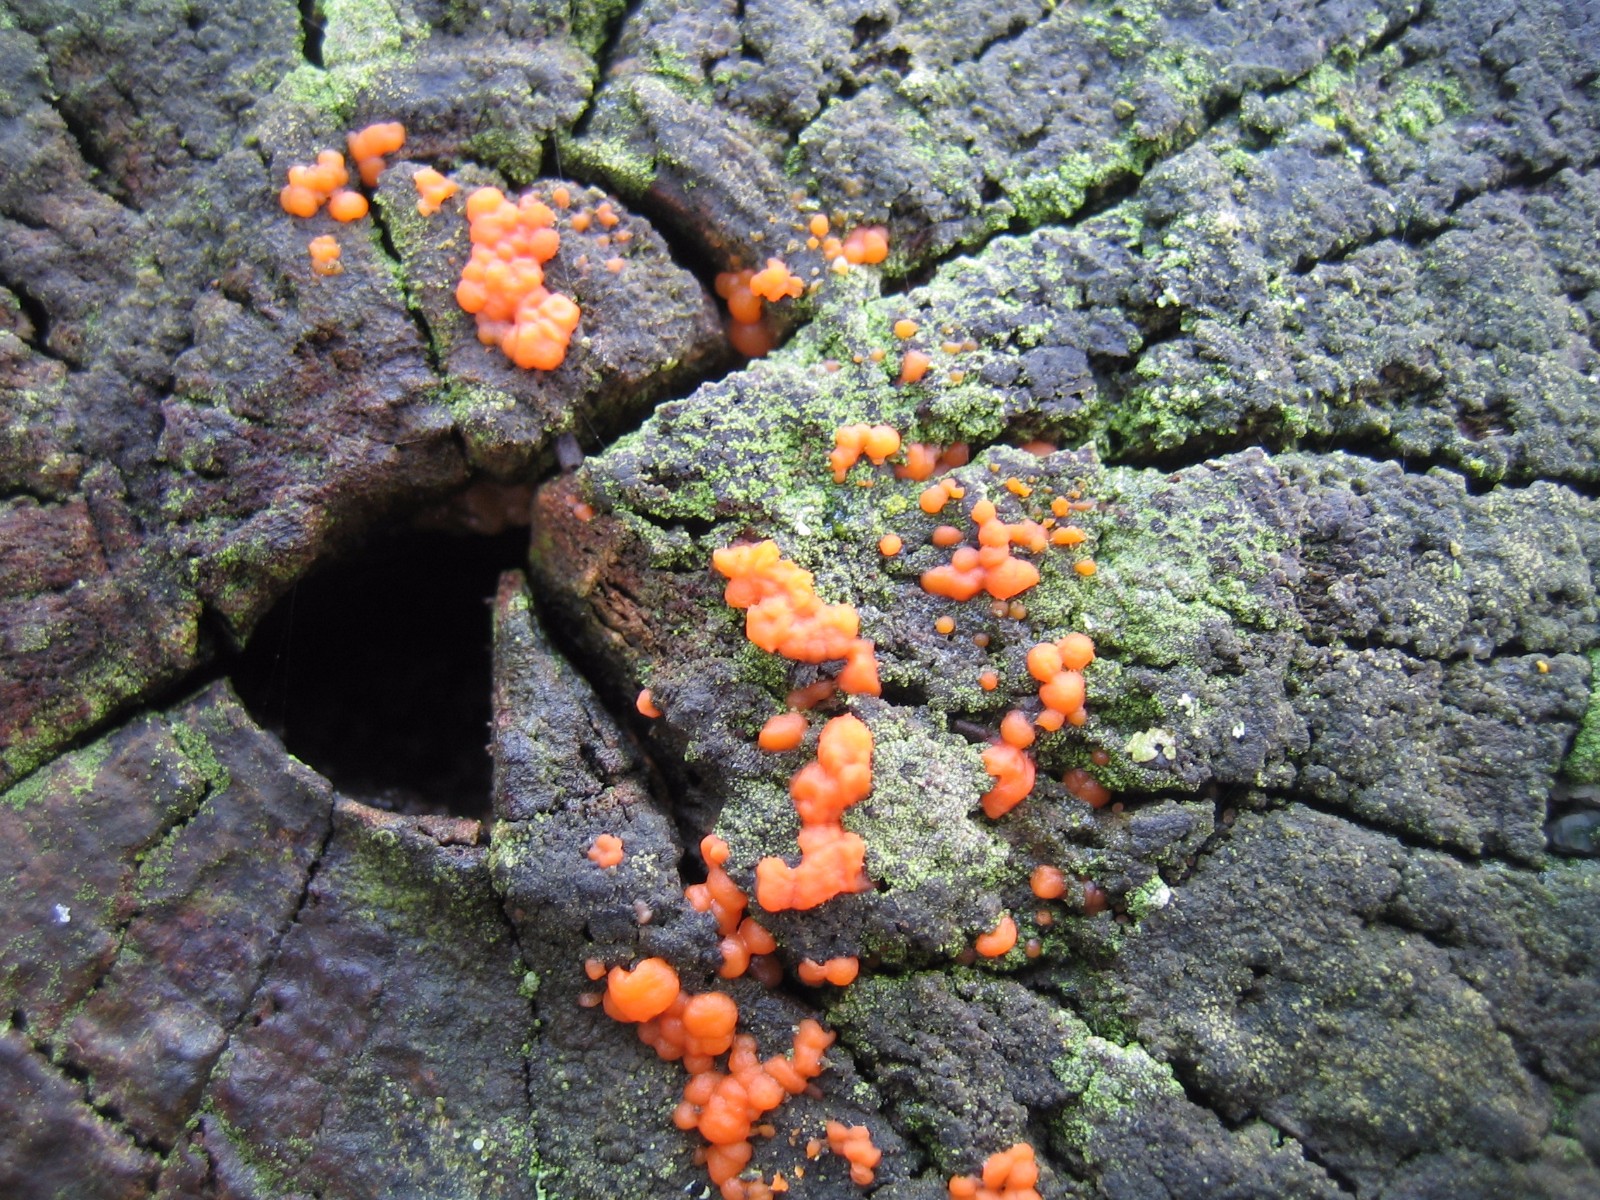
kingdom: Fungi
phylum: Basidiomycota
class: Dacrymycetes
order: Dacrymycetales
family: Dacrymycetaceae
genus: Dacrymyces
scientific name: Dacrymyces stillatus
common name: almindelig tåresvamp
